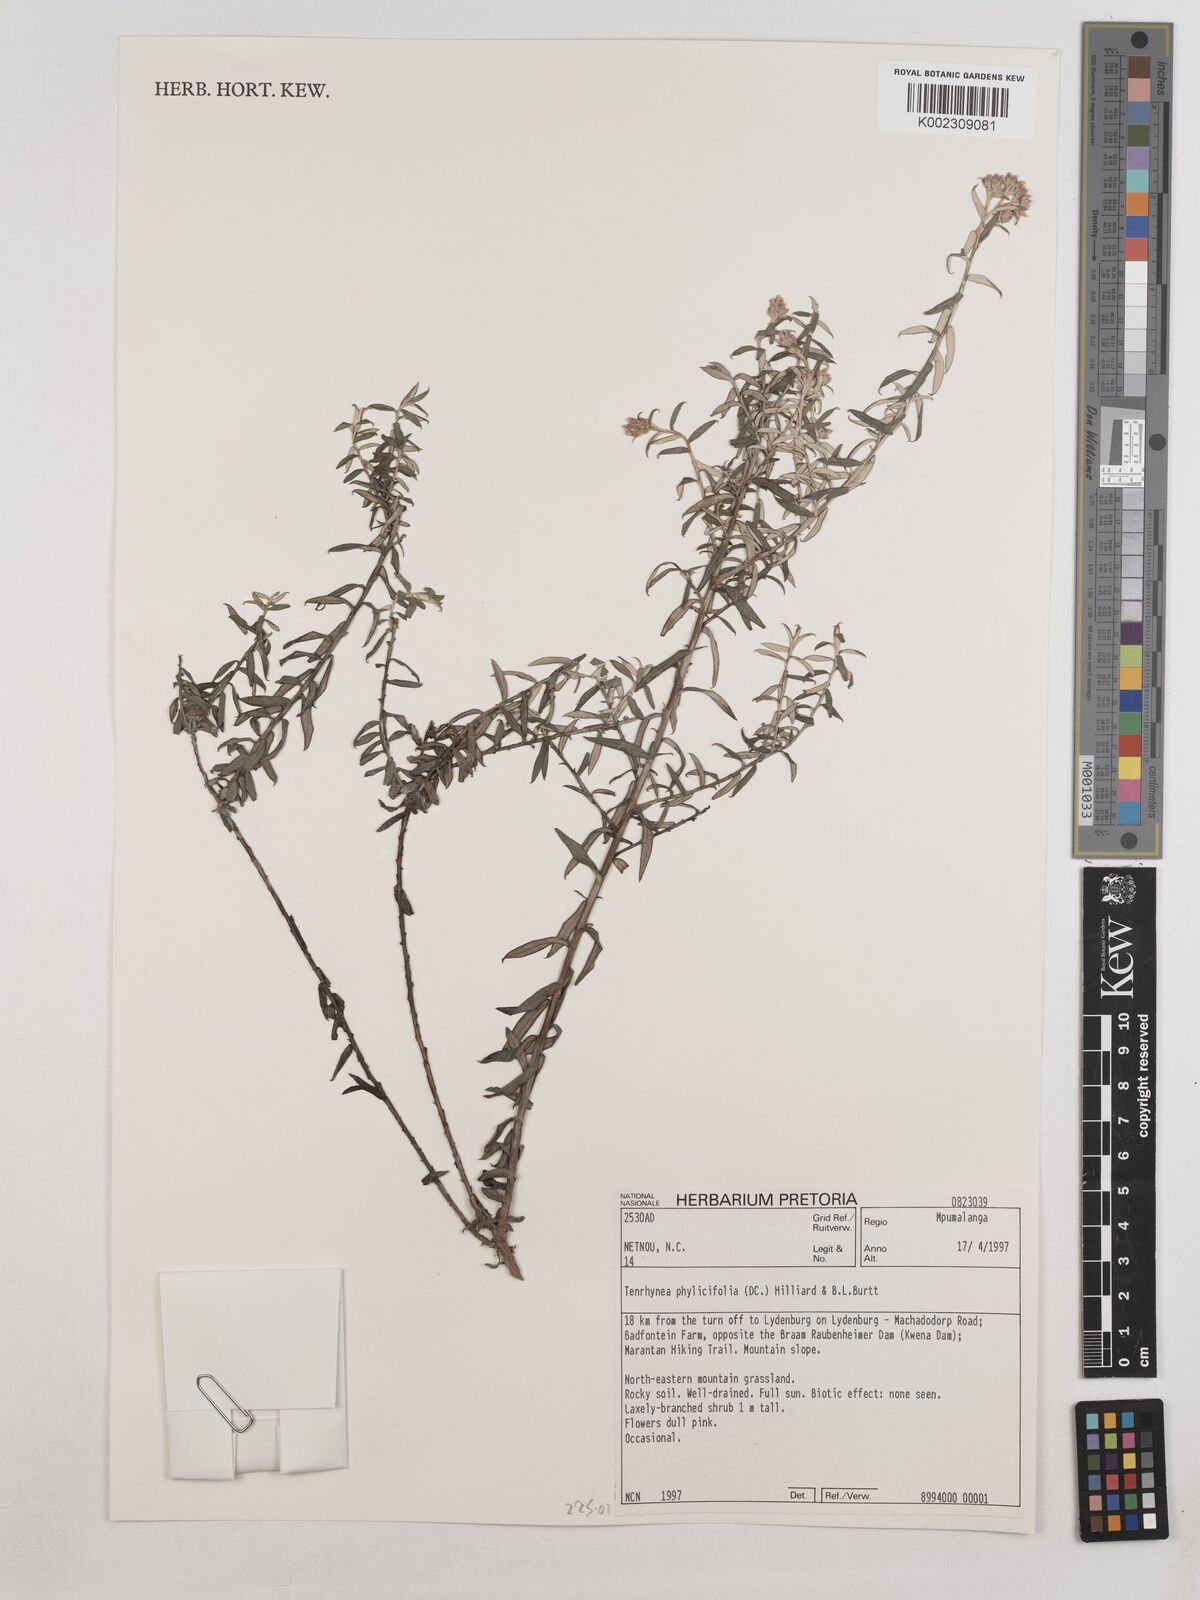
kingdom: Plantae
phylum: Tracheophyta
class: Magnoliopsida
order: Asterales
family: Asteraceae
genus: Tenrhynea
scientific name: Tenrhynea phylicifolia
